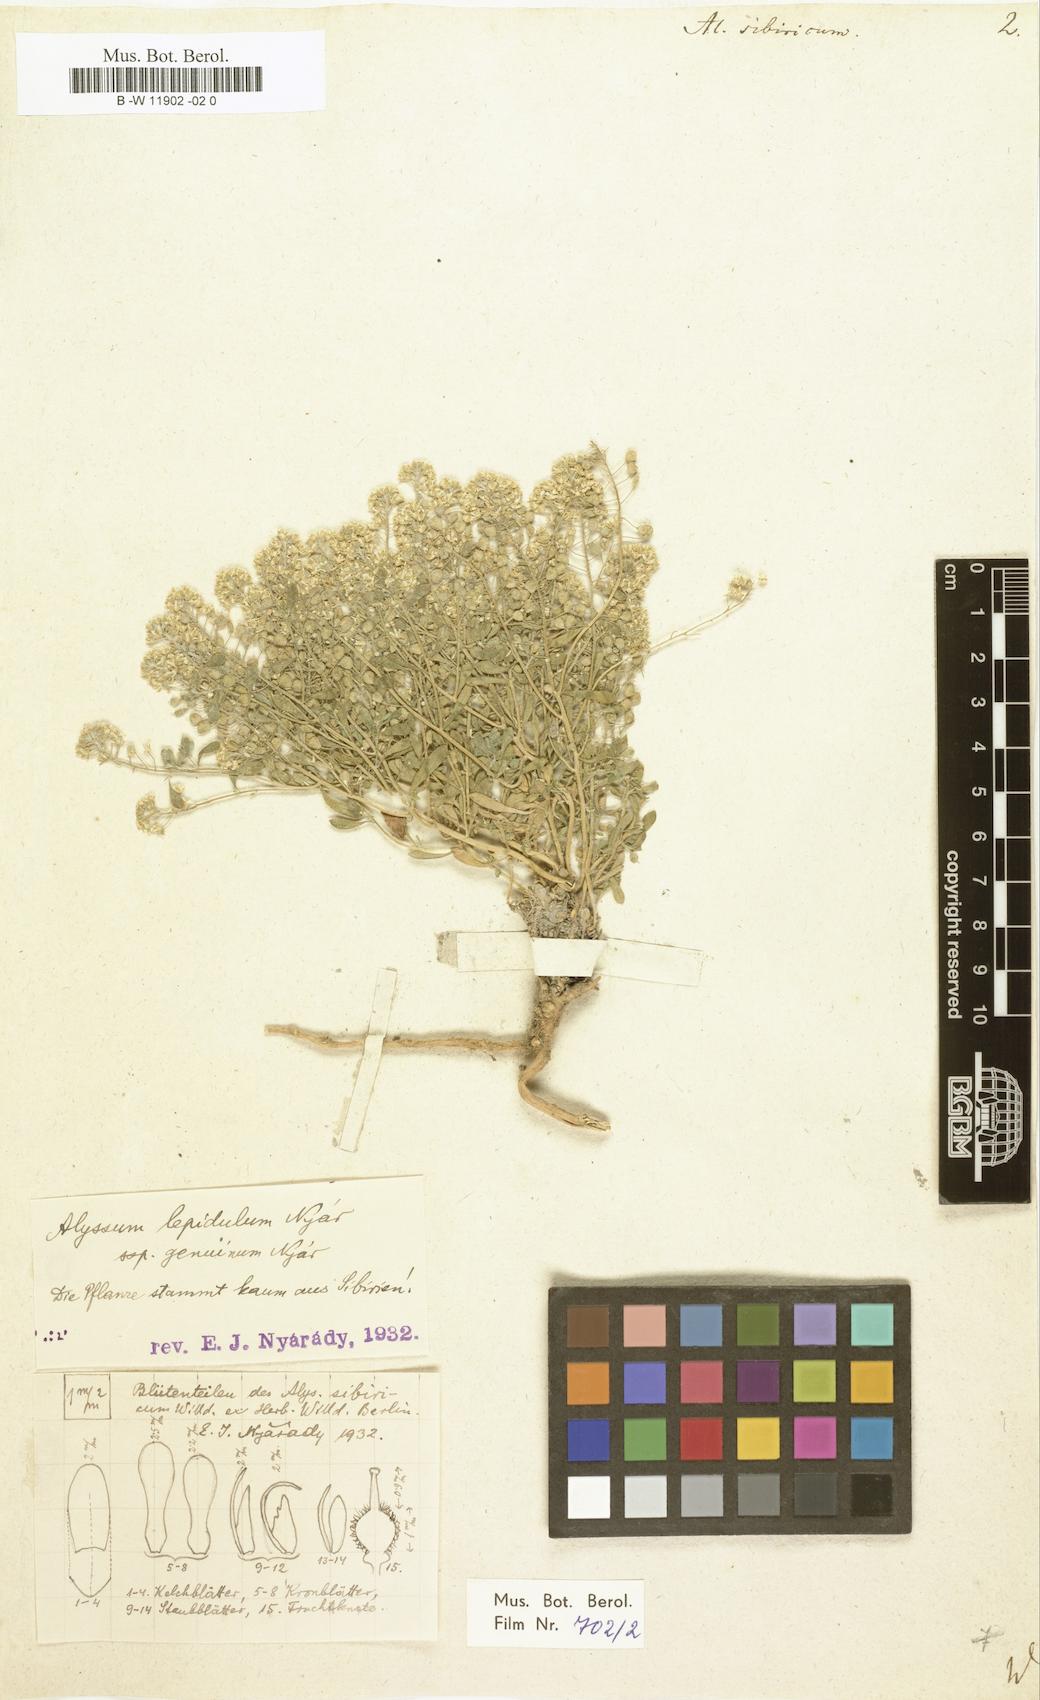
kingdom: Plantae
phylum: Tracheophyta
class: Magnoliopsida
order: Brassicales
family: Brassicaceae
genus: Odontarrhena
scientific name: Odontarrhena sibirica
